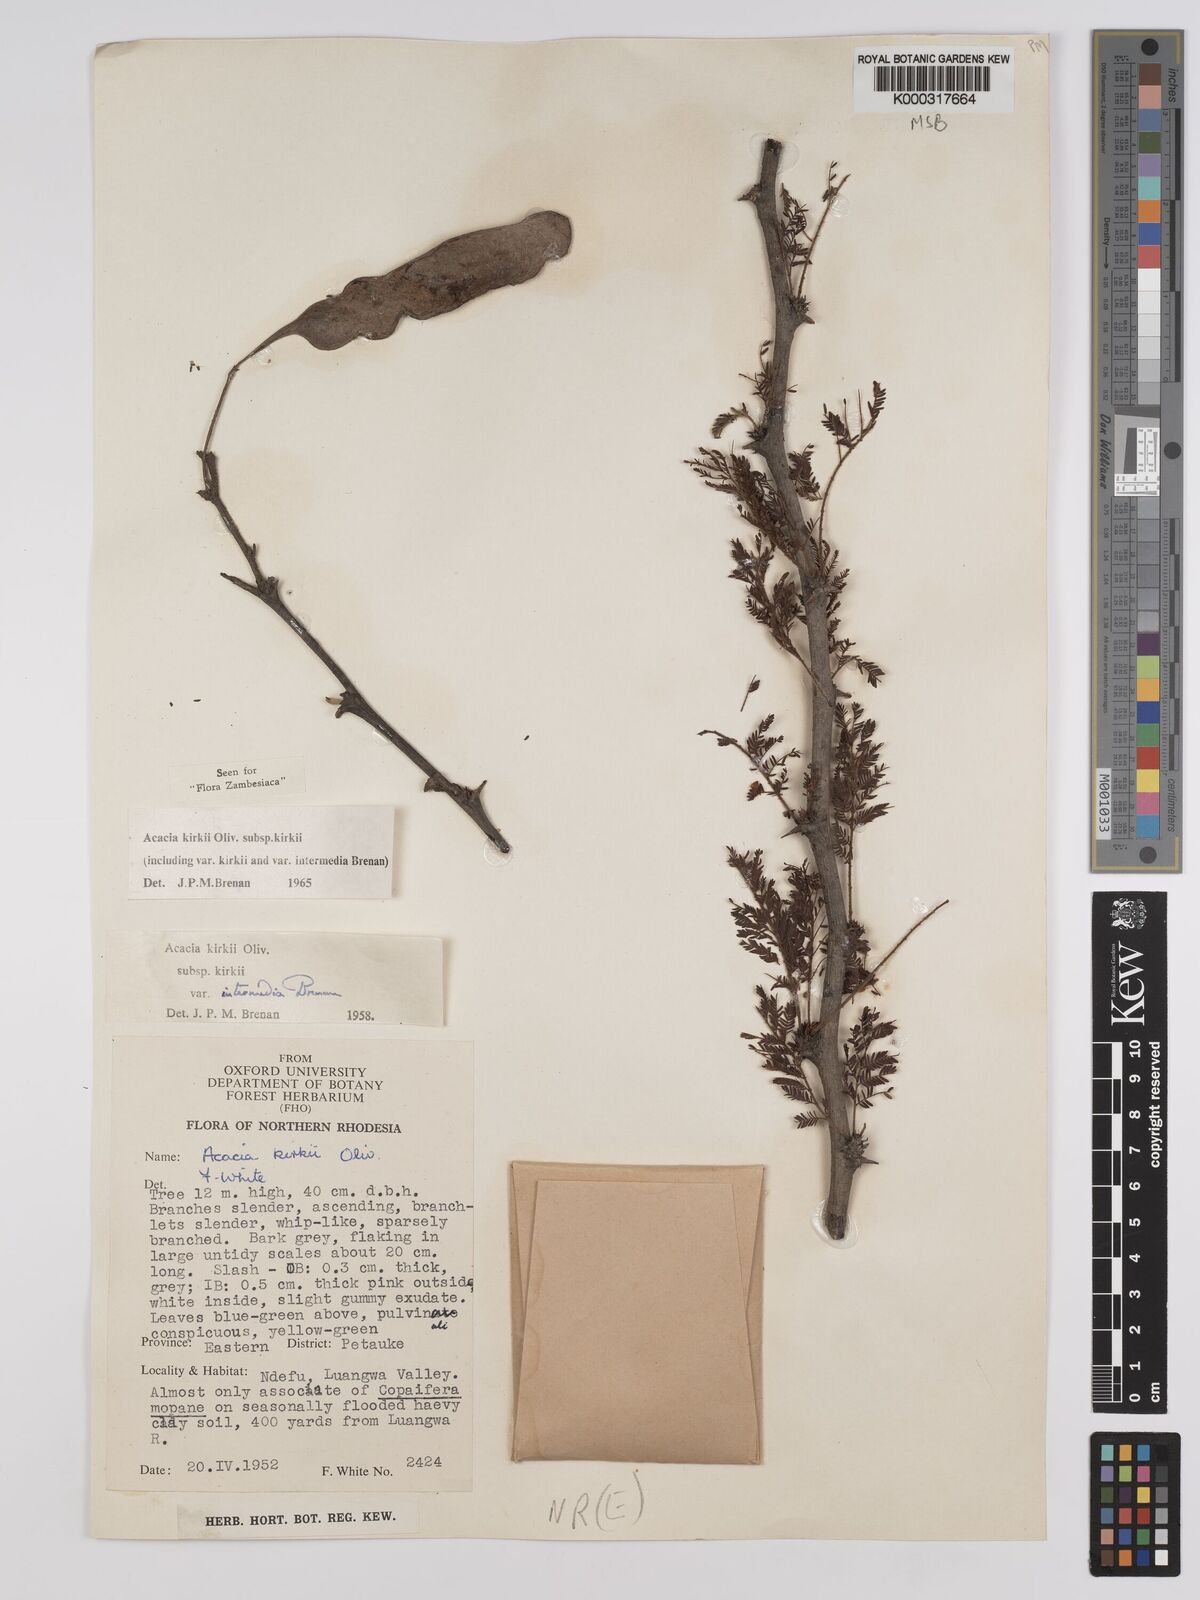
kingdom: Plantae
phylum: Tracheophyta
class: Magnoliopsida
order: Fabales
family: Fabaceae
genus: Vachellia
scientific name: Vachellia kirkii
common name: Flood-plain acacia
